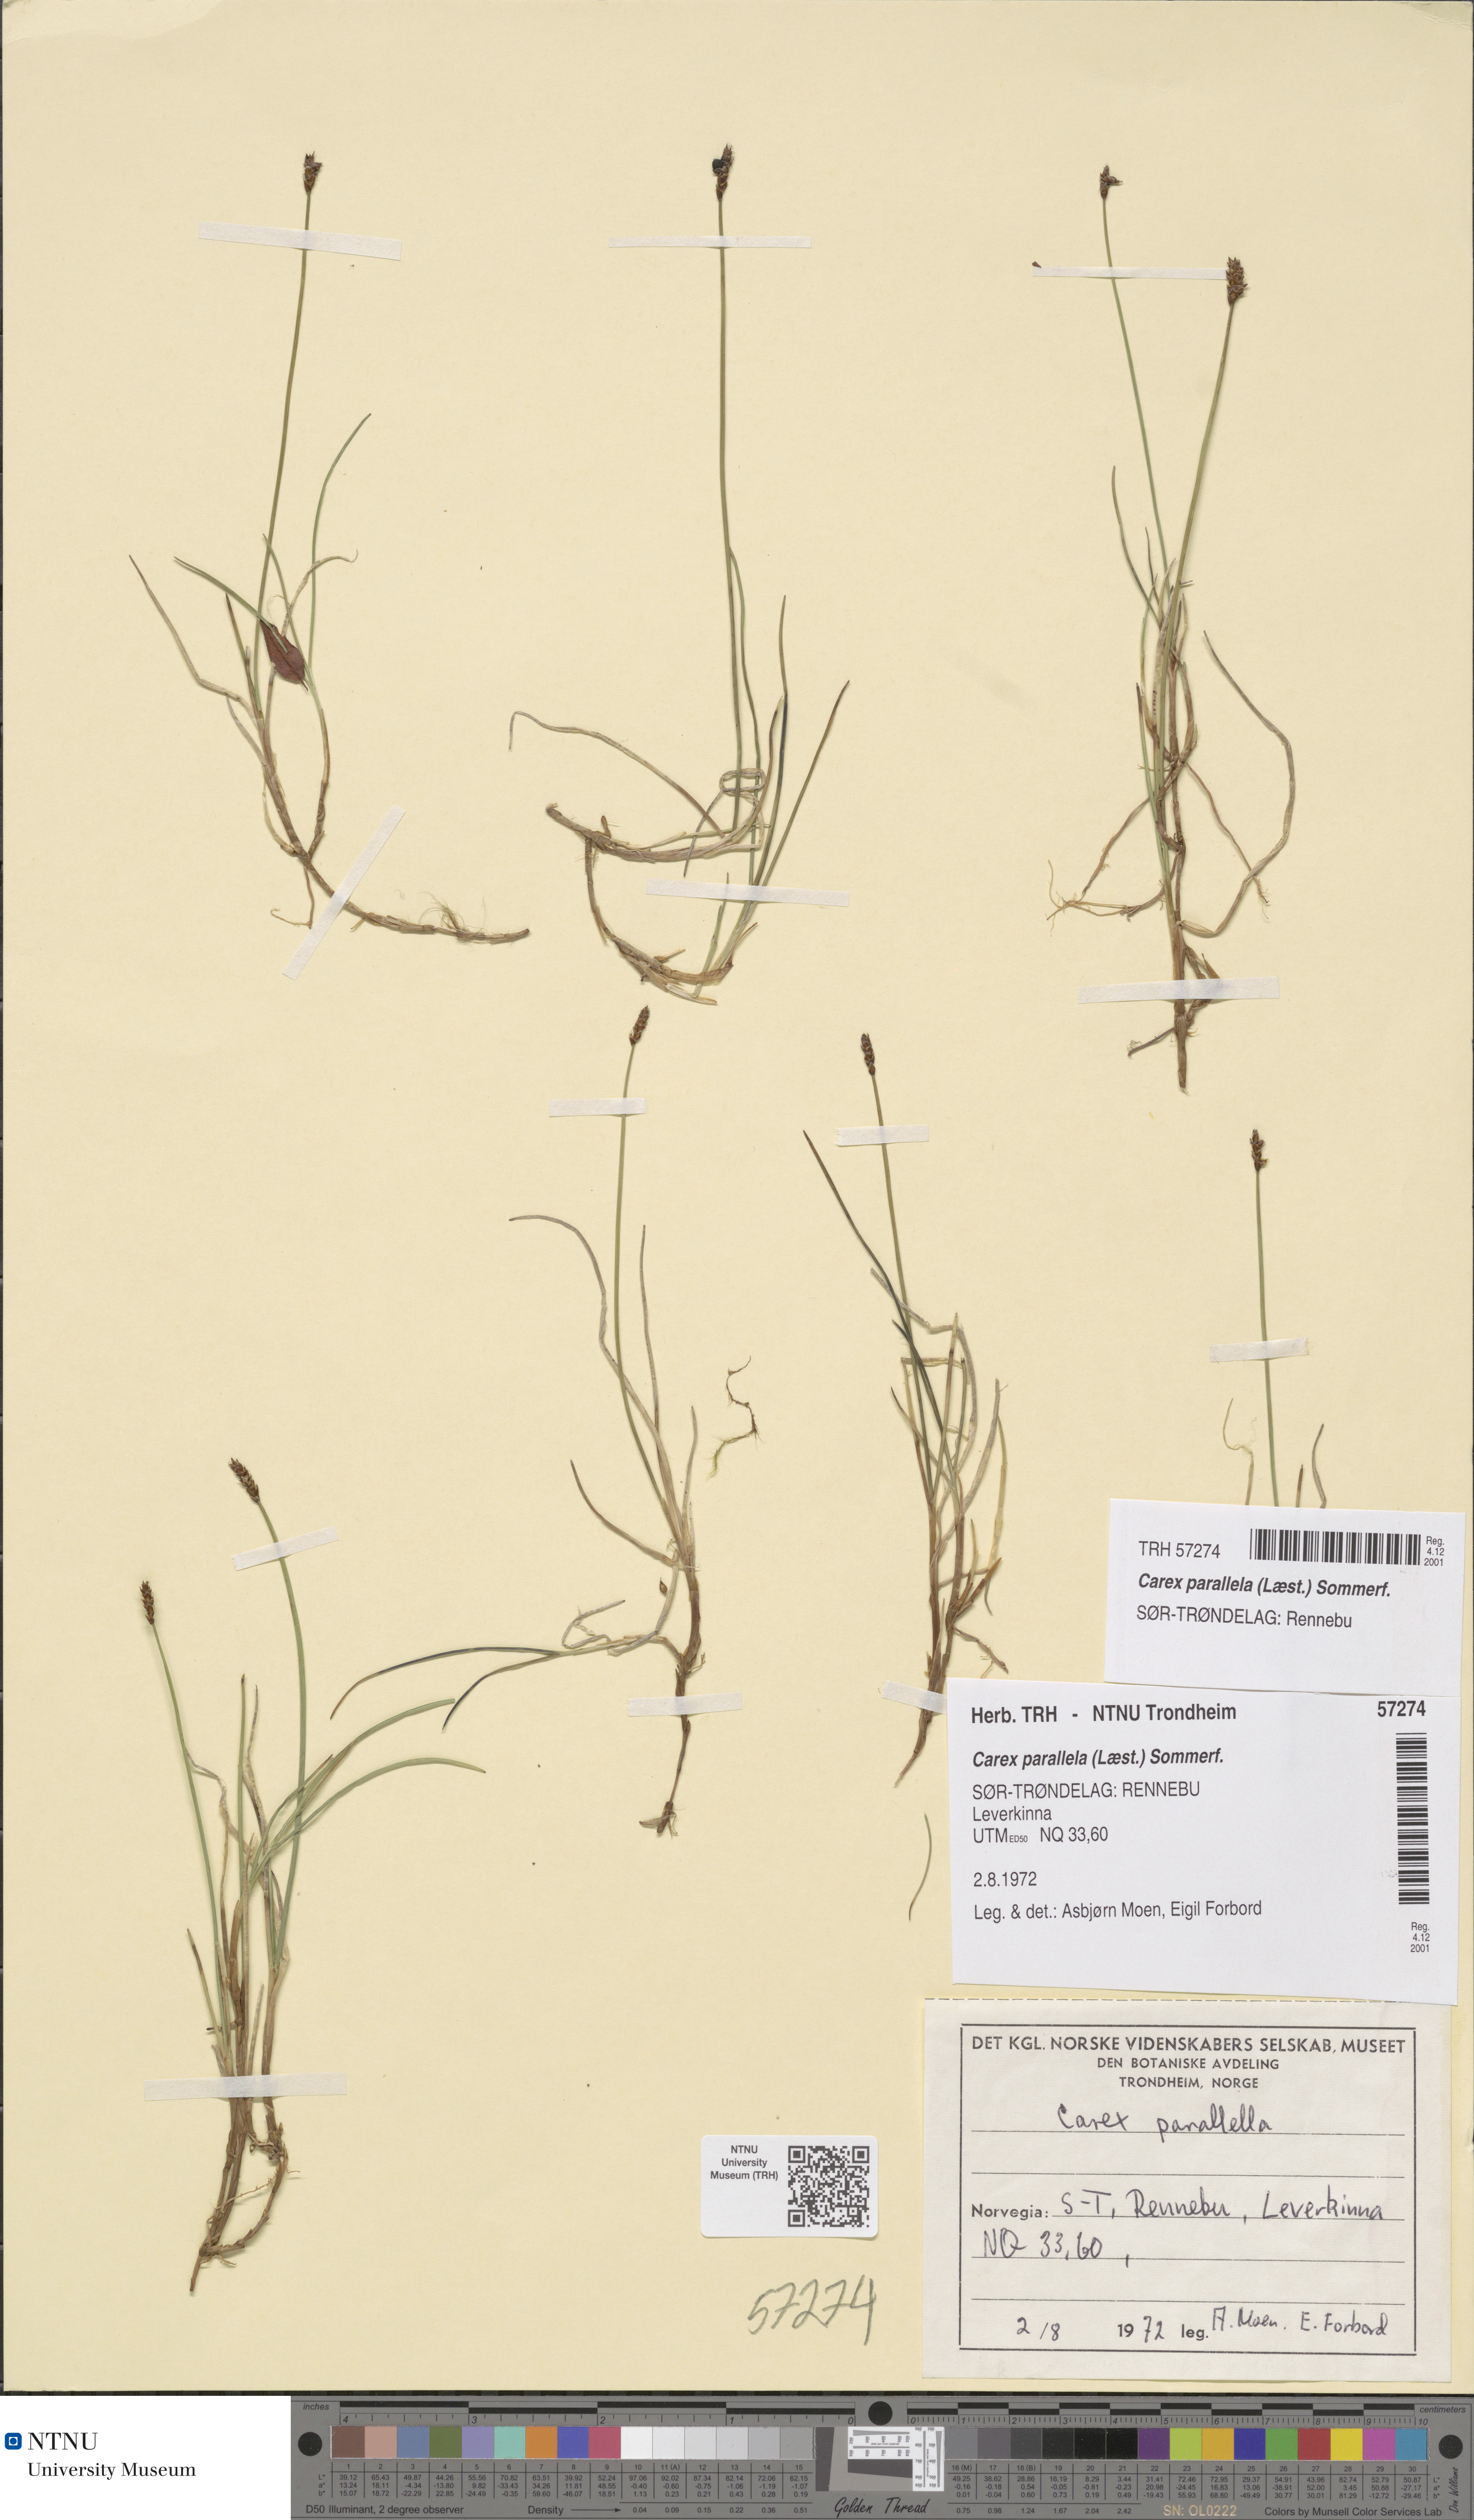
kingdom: Plantae
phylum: Tracheophyta
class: Liliopsida
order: Poales
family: Cyperaceae
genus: Carex
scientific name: Carex parallela
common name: Parallel sedge
